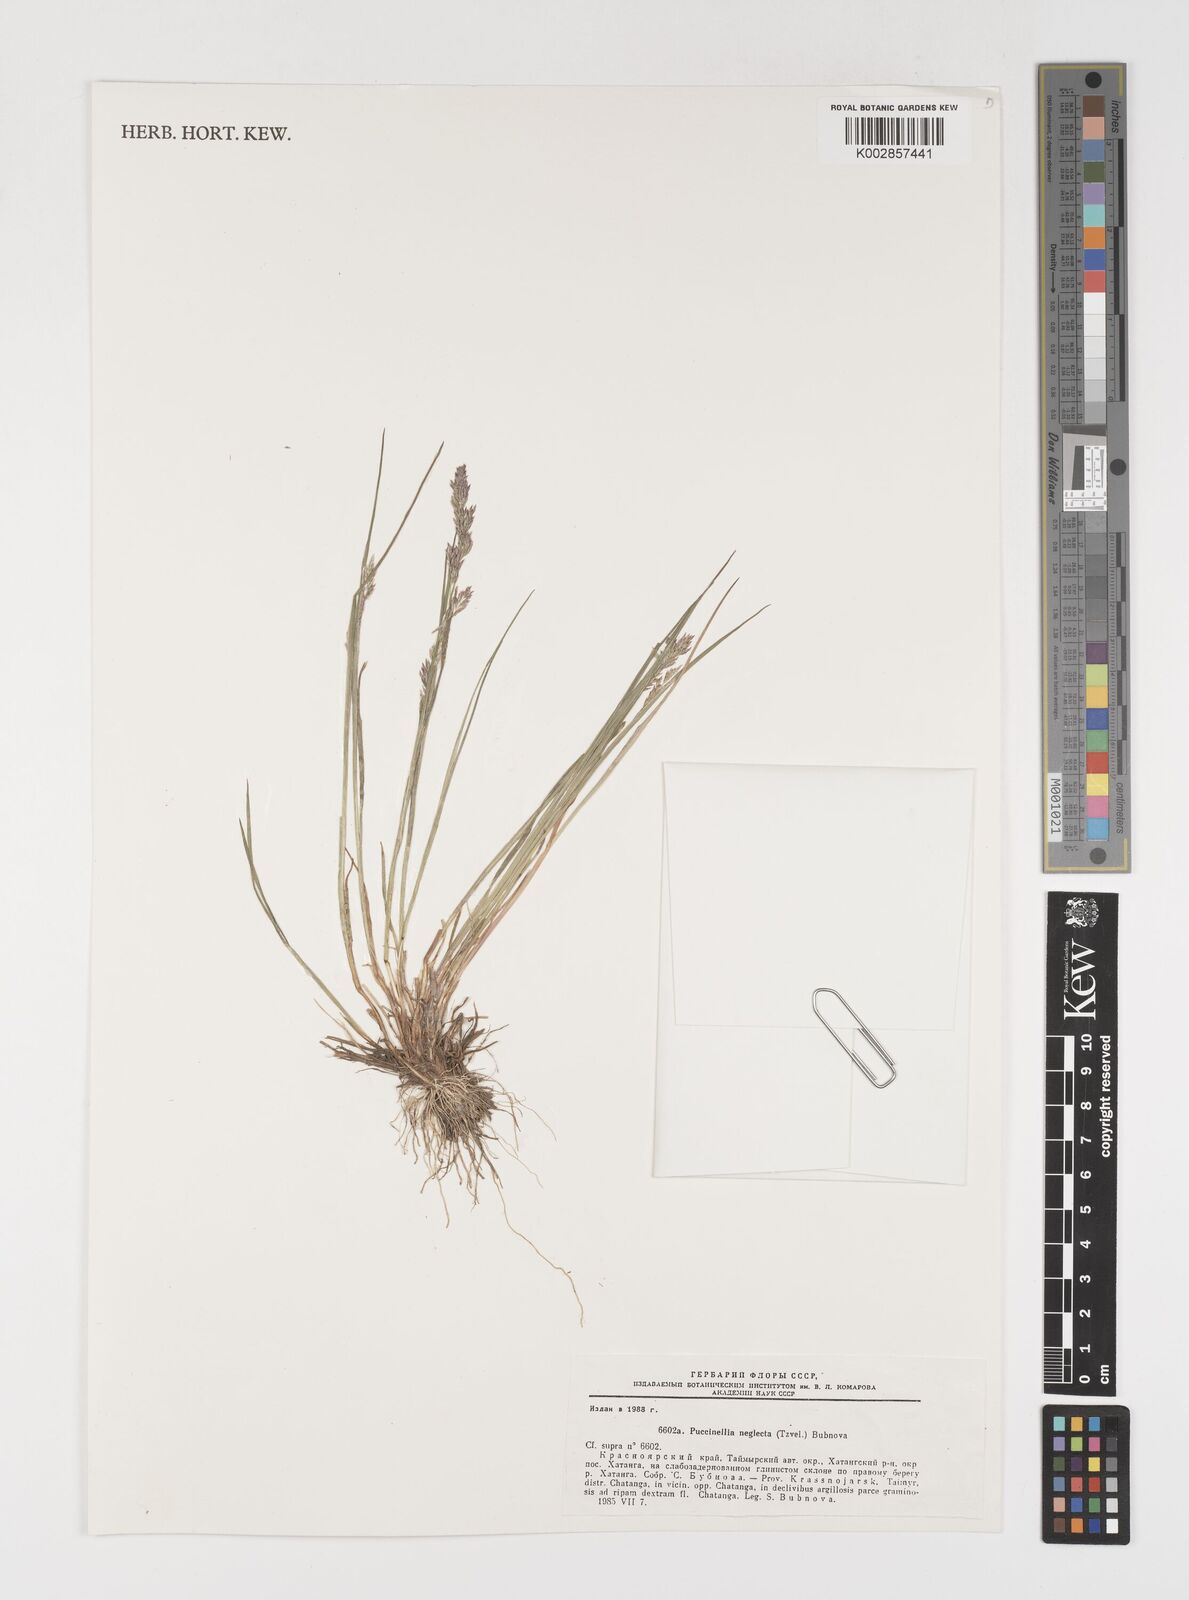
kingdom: Plantae
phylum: Tracheophyta
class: Liliopsida
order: Poales
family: Poaceae
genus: Puccinellia
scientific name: Puccinellia nuttalliana
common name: Nuttall's alkali grass
